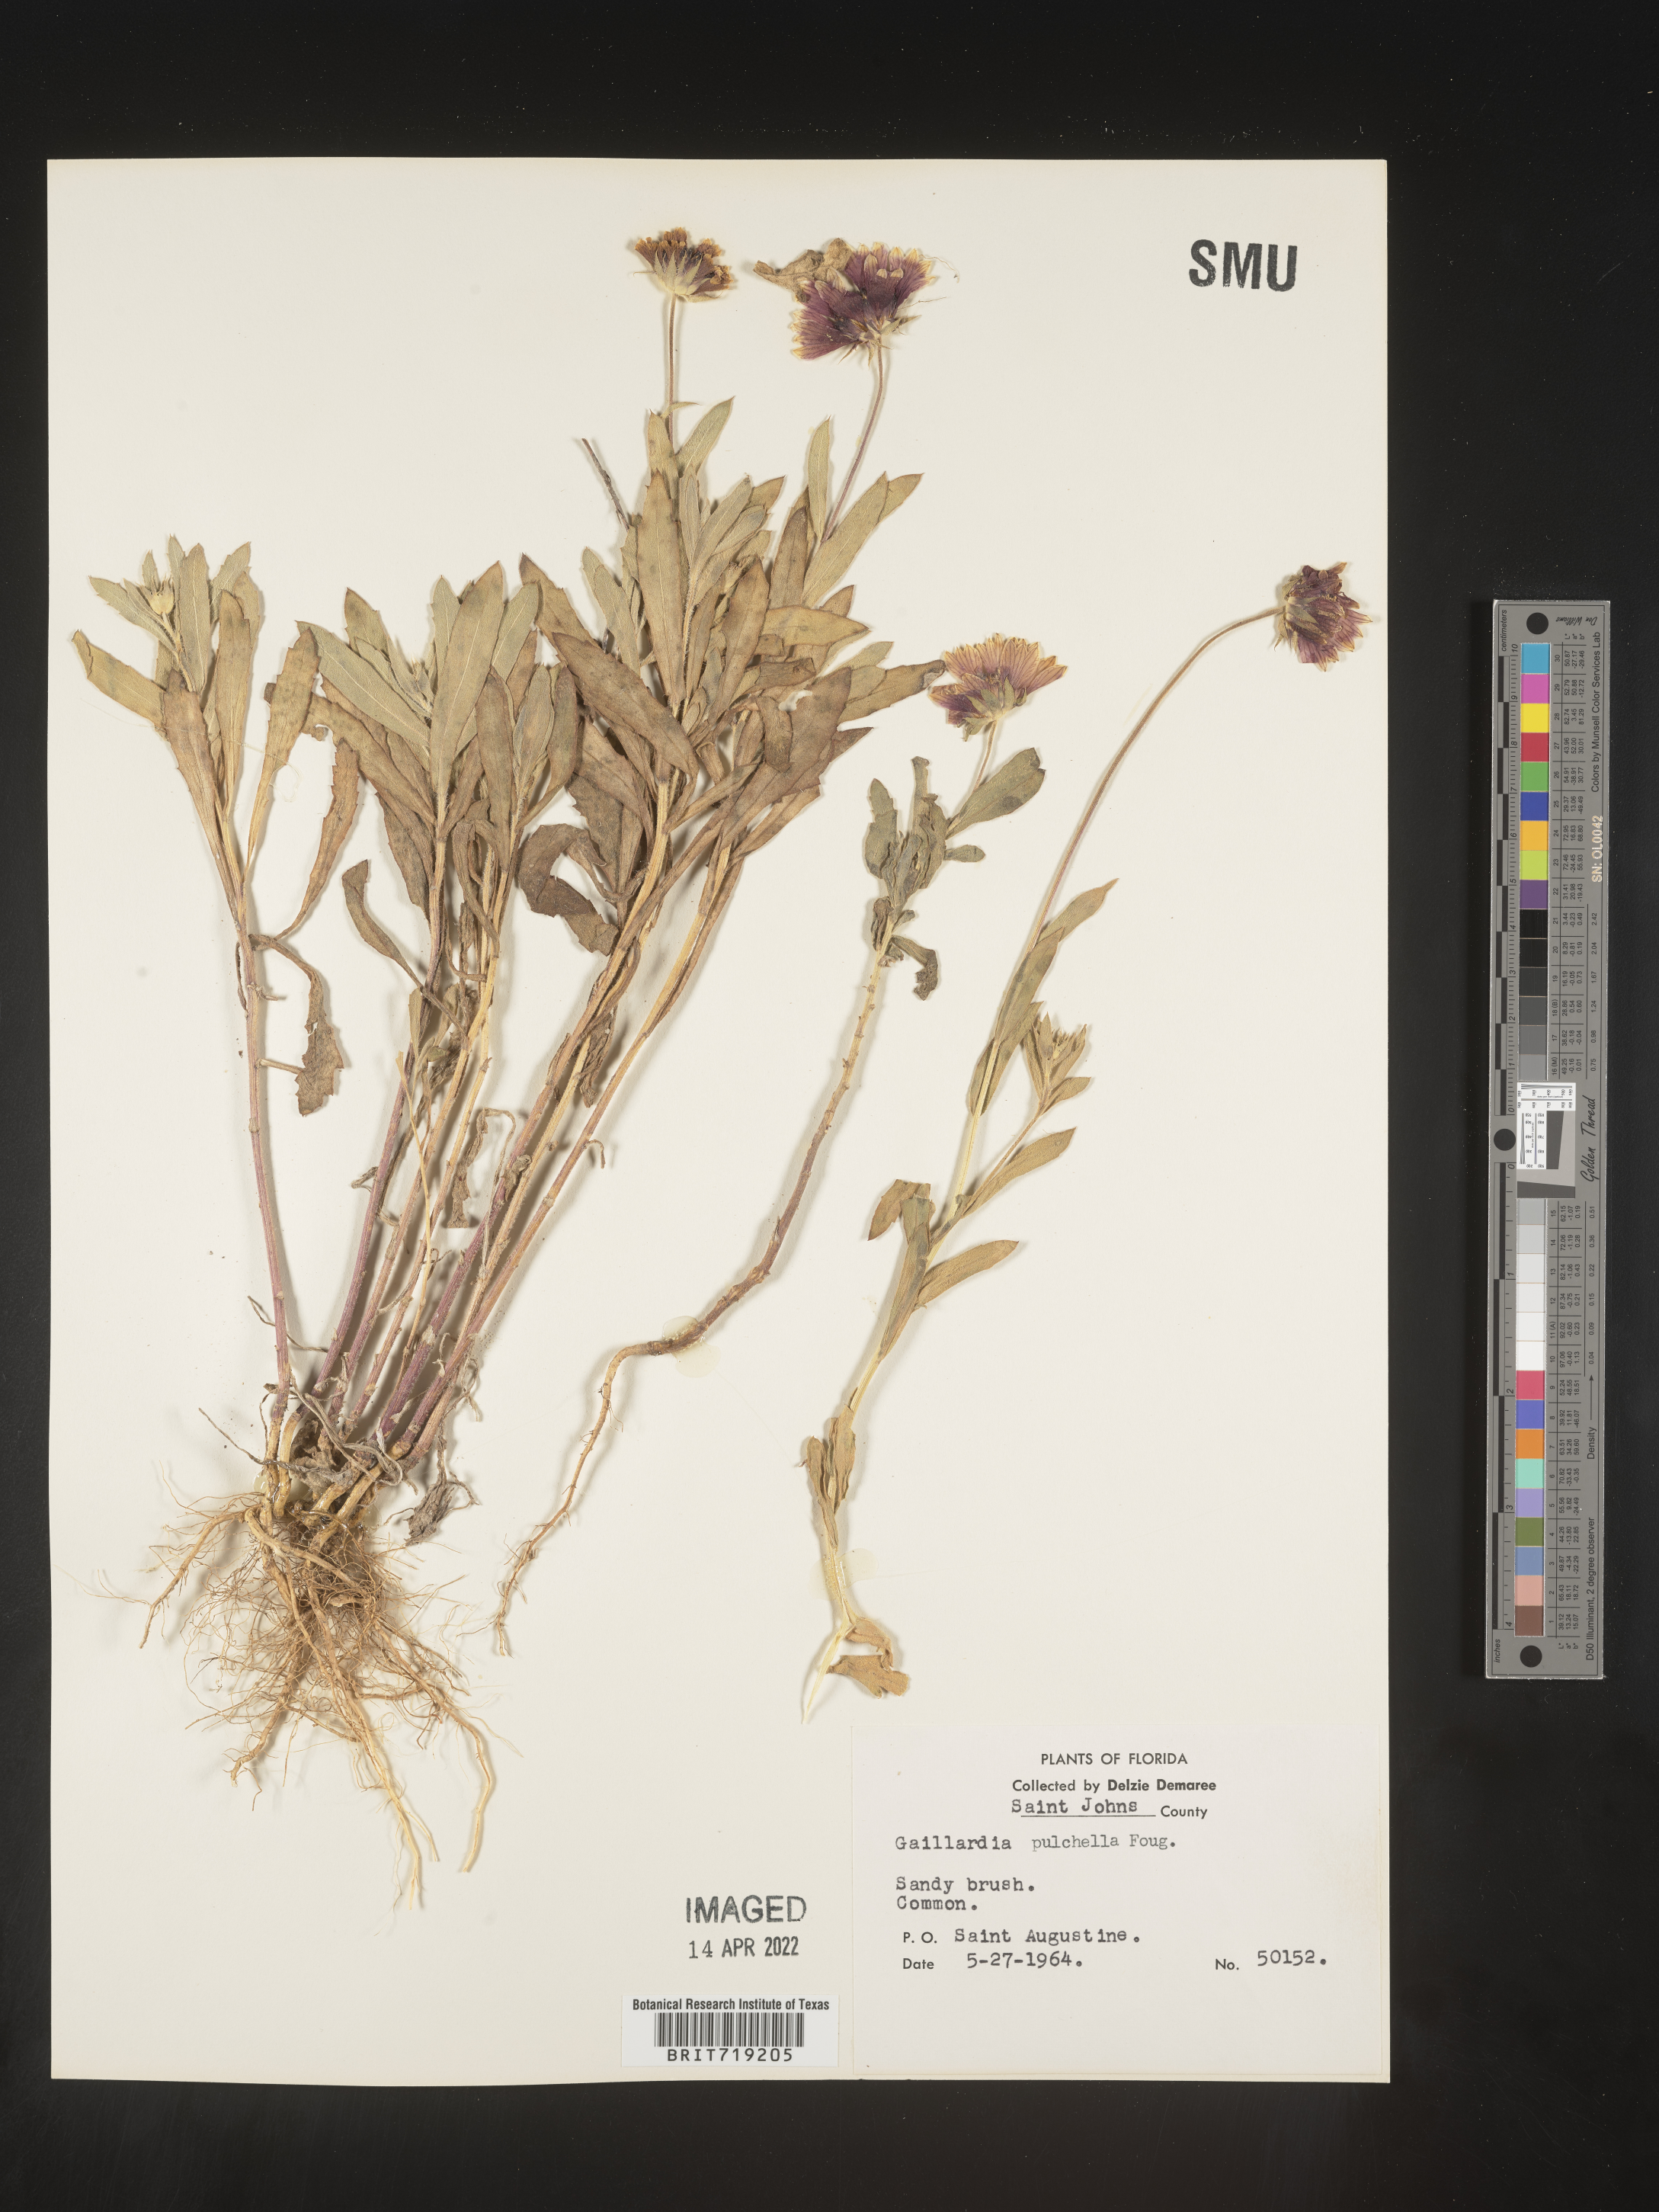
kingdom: Plantae
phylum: Tracheophyta
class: Magnoliopsida
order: Asterales
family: Asteraceae
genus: Gaillardia
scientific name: Gaillardia pulchella
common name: Firewheel
